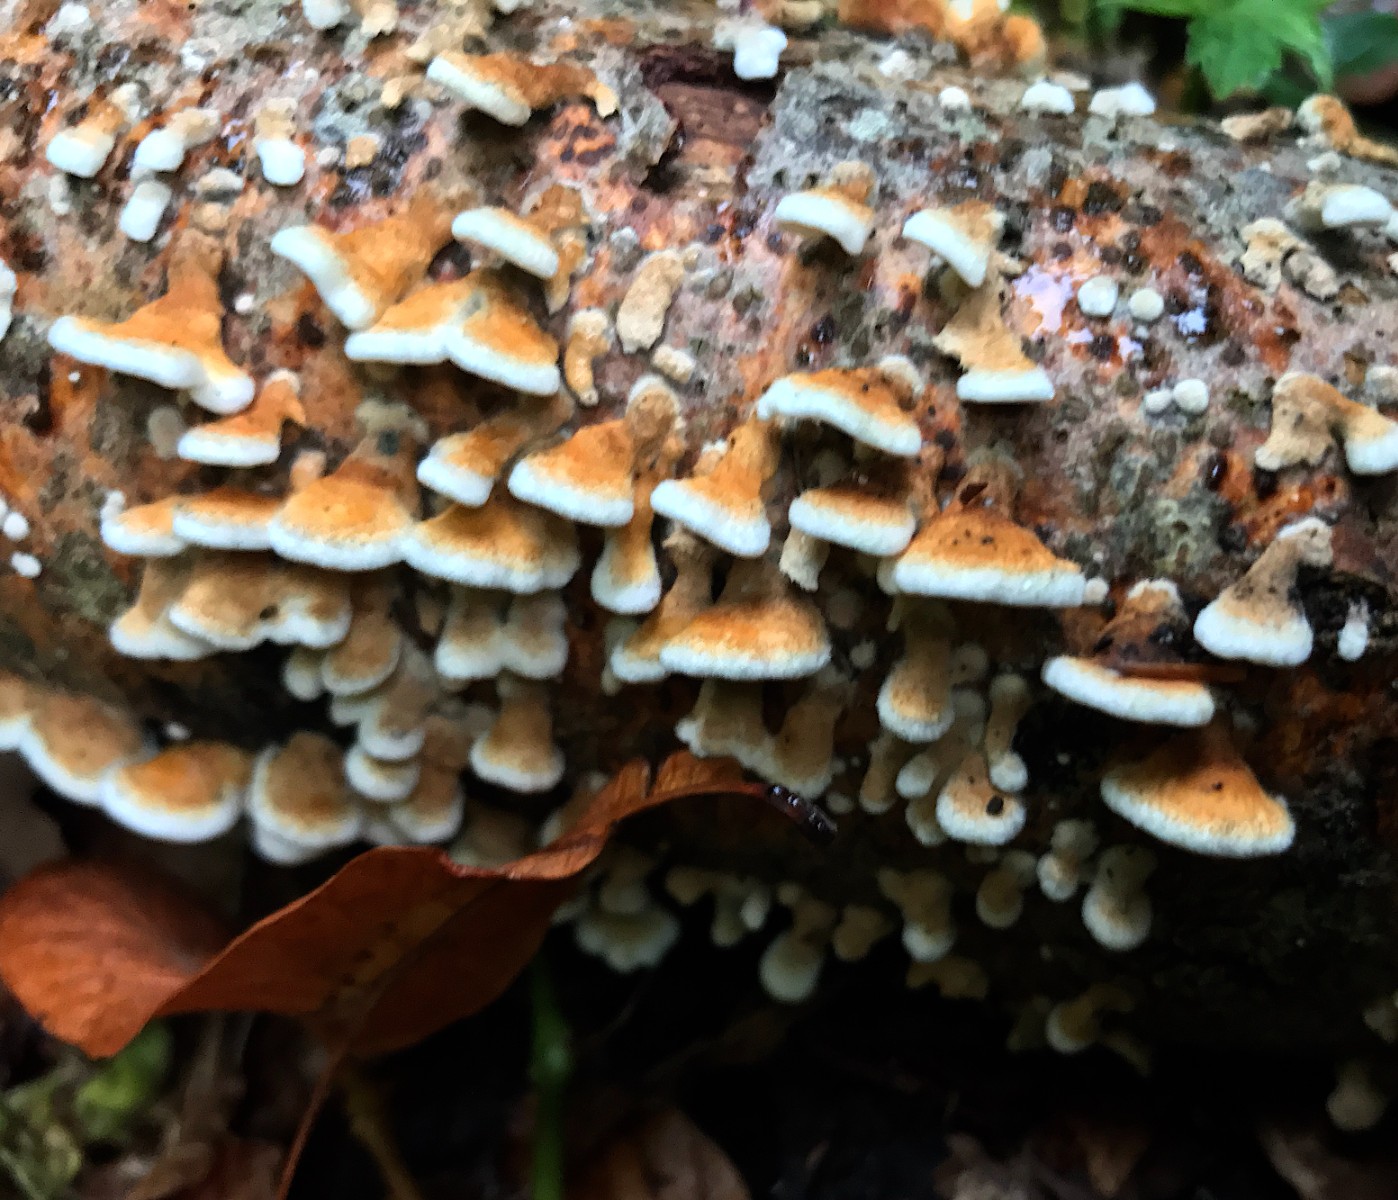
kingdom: Fungi
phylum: Basidiomycota
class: Agaricomycetes
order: Amylocorticiales
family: Amylocorticiaceae
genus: Plicaturopsis
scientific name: Plicaturopsis crispa
